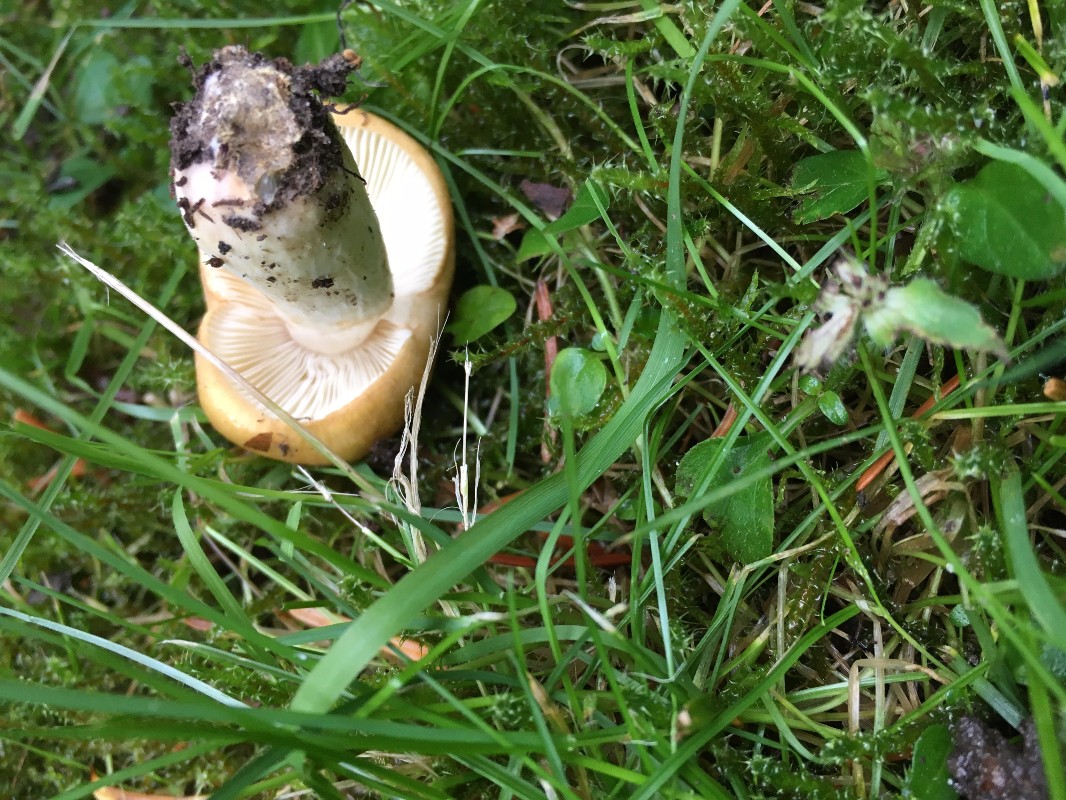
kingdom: Fungi
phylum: Basidiomycota
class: Agaricomycetes
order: Russulales
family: Russulaceae
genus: Russula
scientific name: Russula ochroleuca
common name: okkergul skørhat
